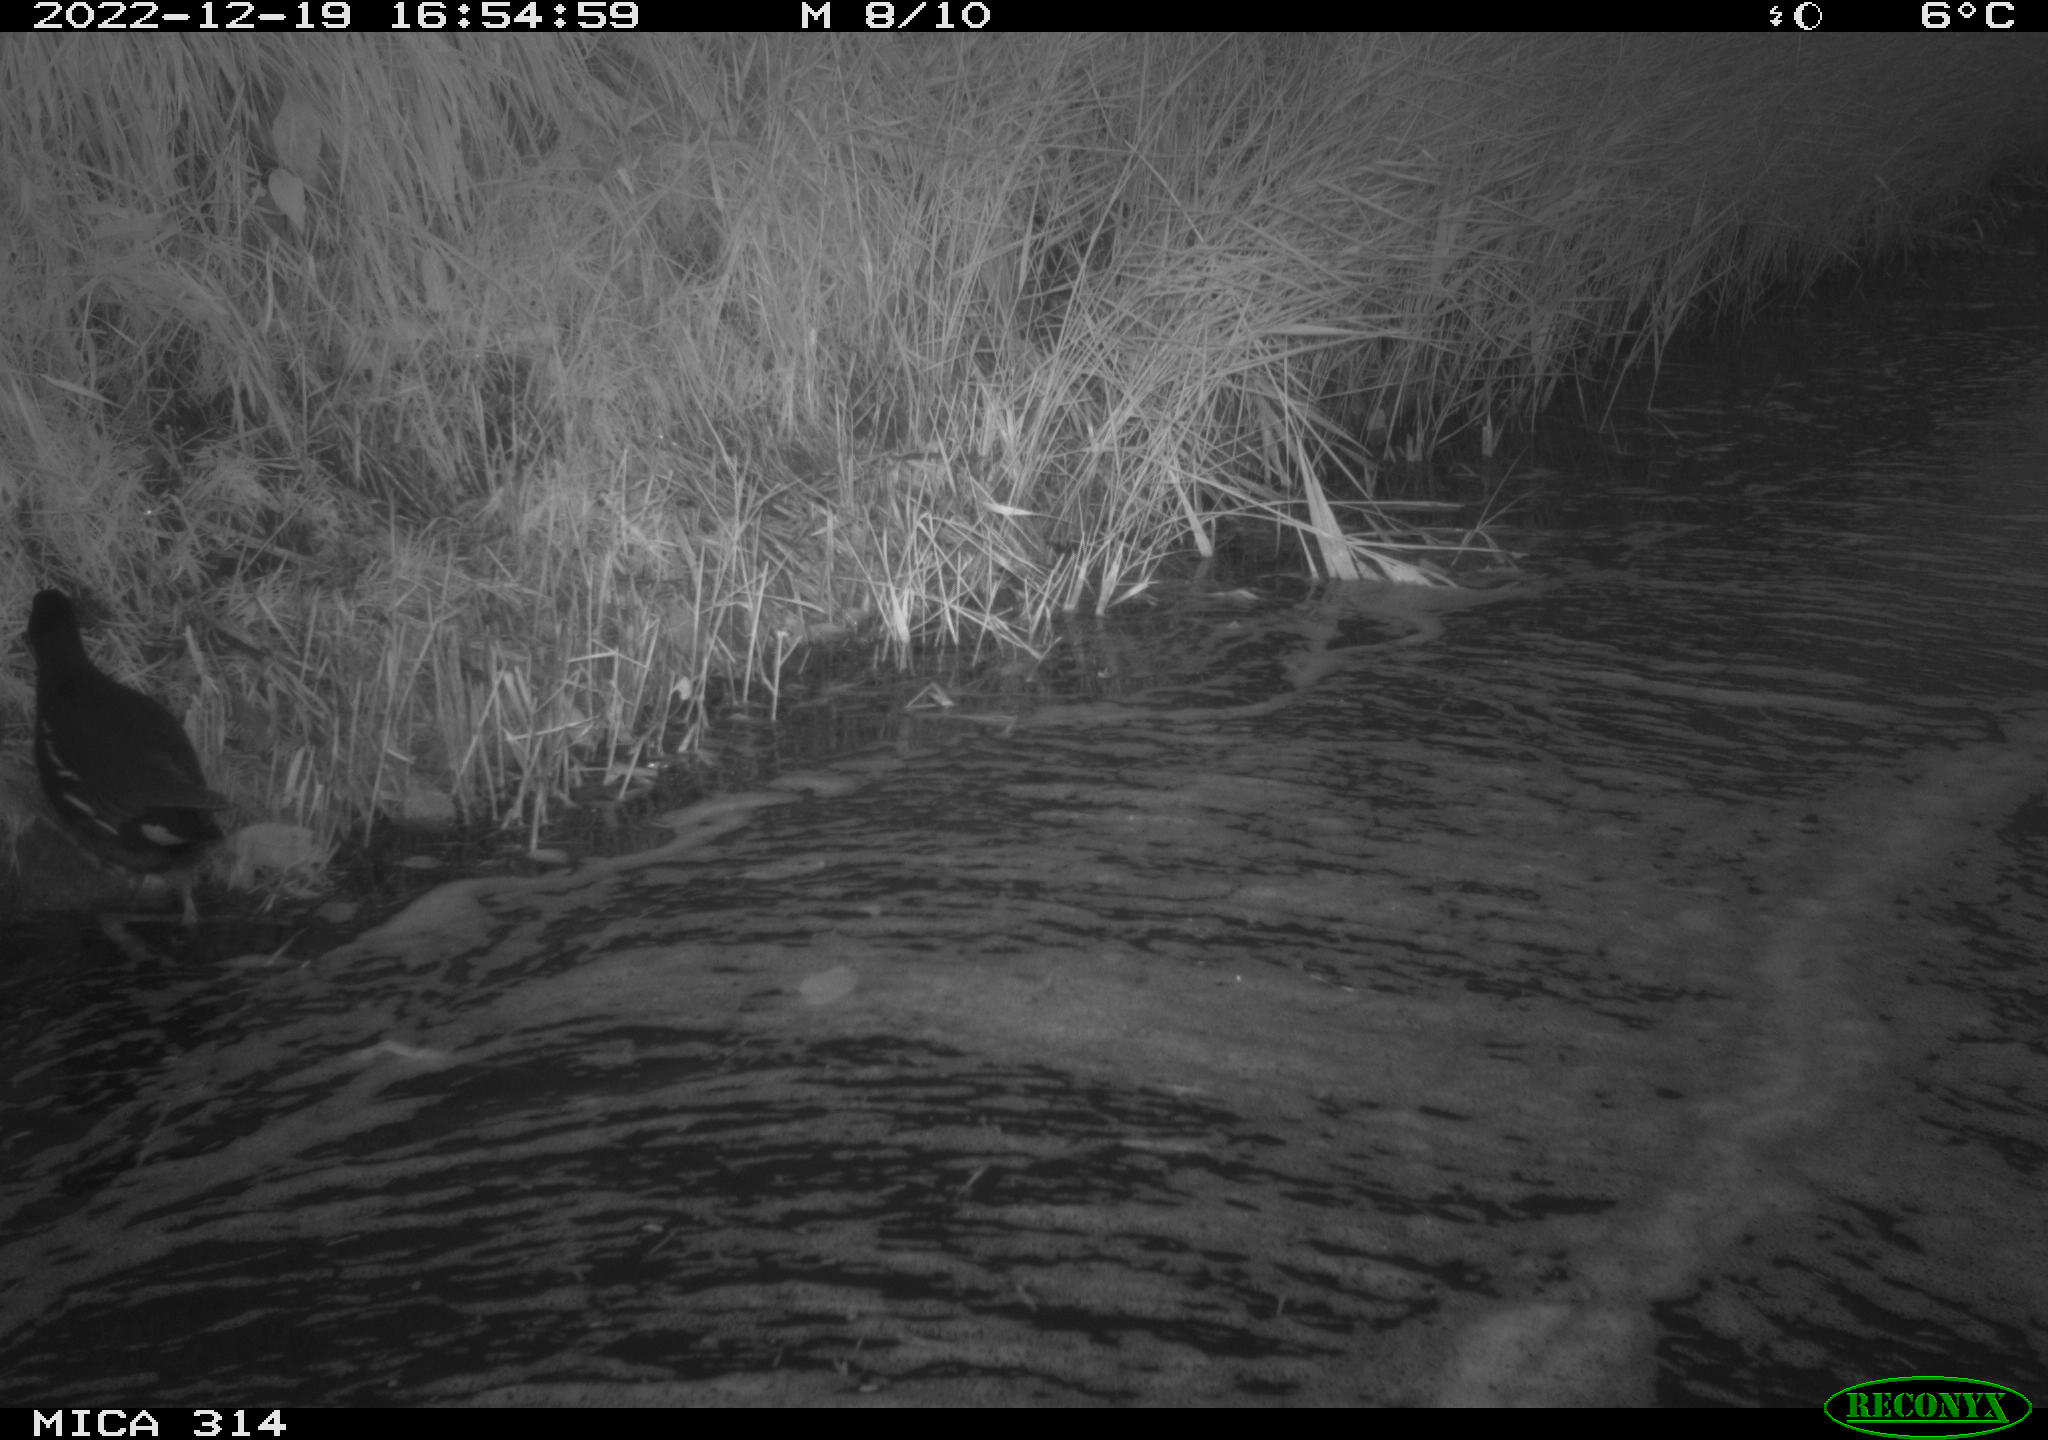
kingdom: Animalia
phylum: Chordata
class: Aves
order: Gruiformes
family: Rallidae
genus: Gallinula
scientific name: Gallinula chloropus
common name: Common moorhen
